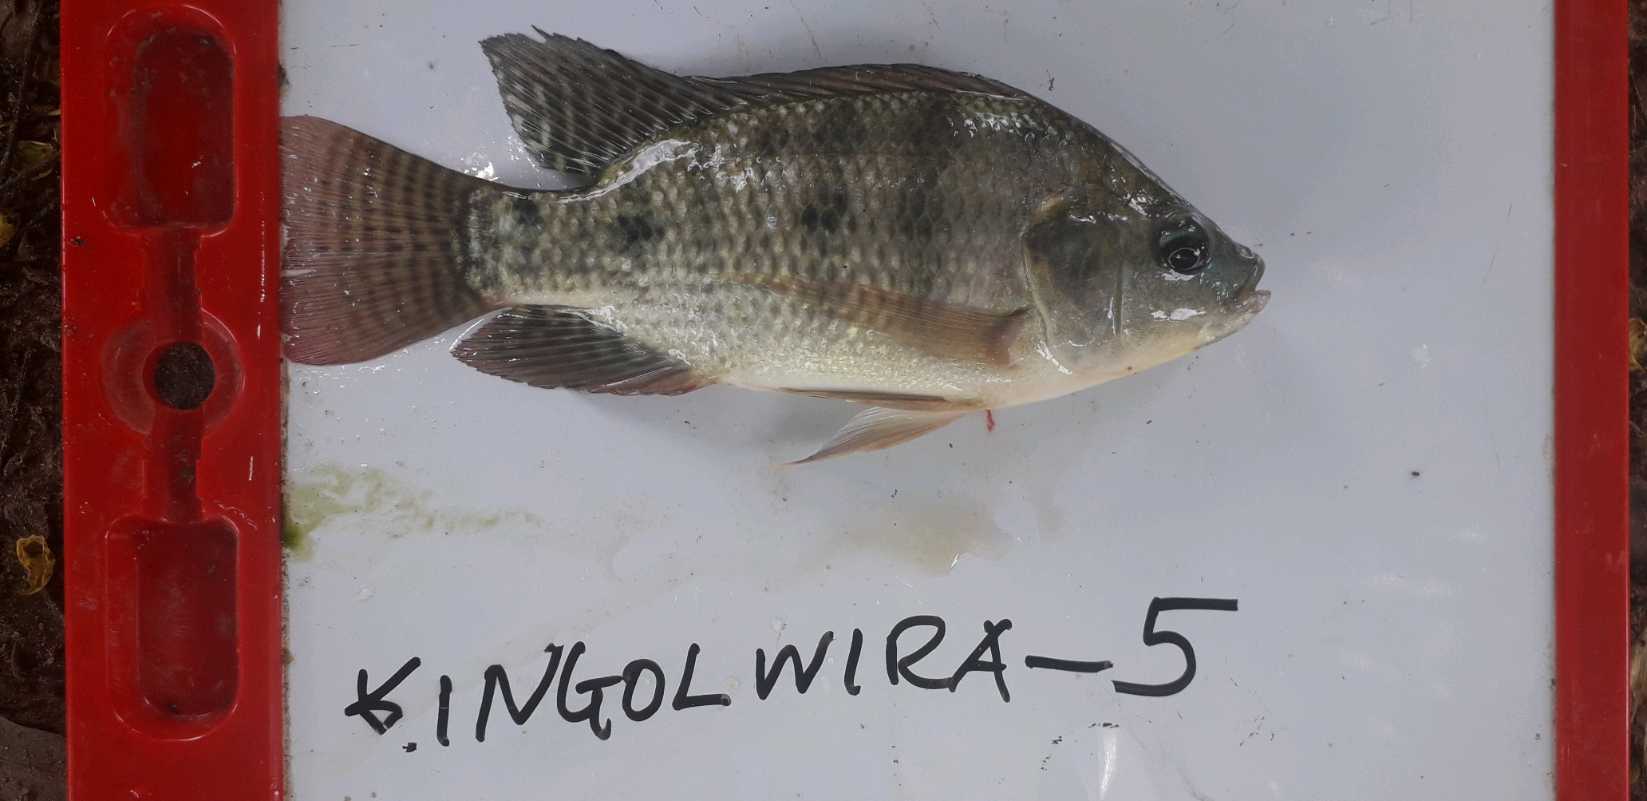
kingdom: Animalia
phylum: Chordata
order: Perciformes
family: Cichlidae
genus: Oreochromis
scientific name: Oreochromis niloticus
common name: Nile tilapia
